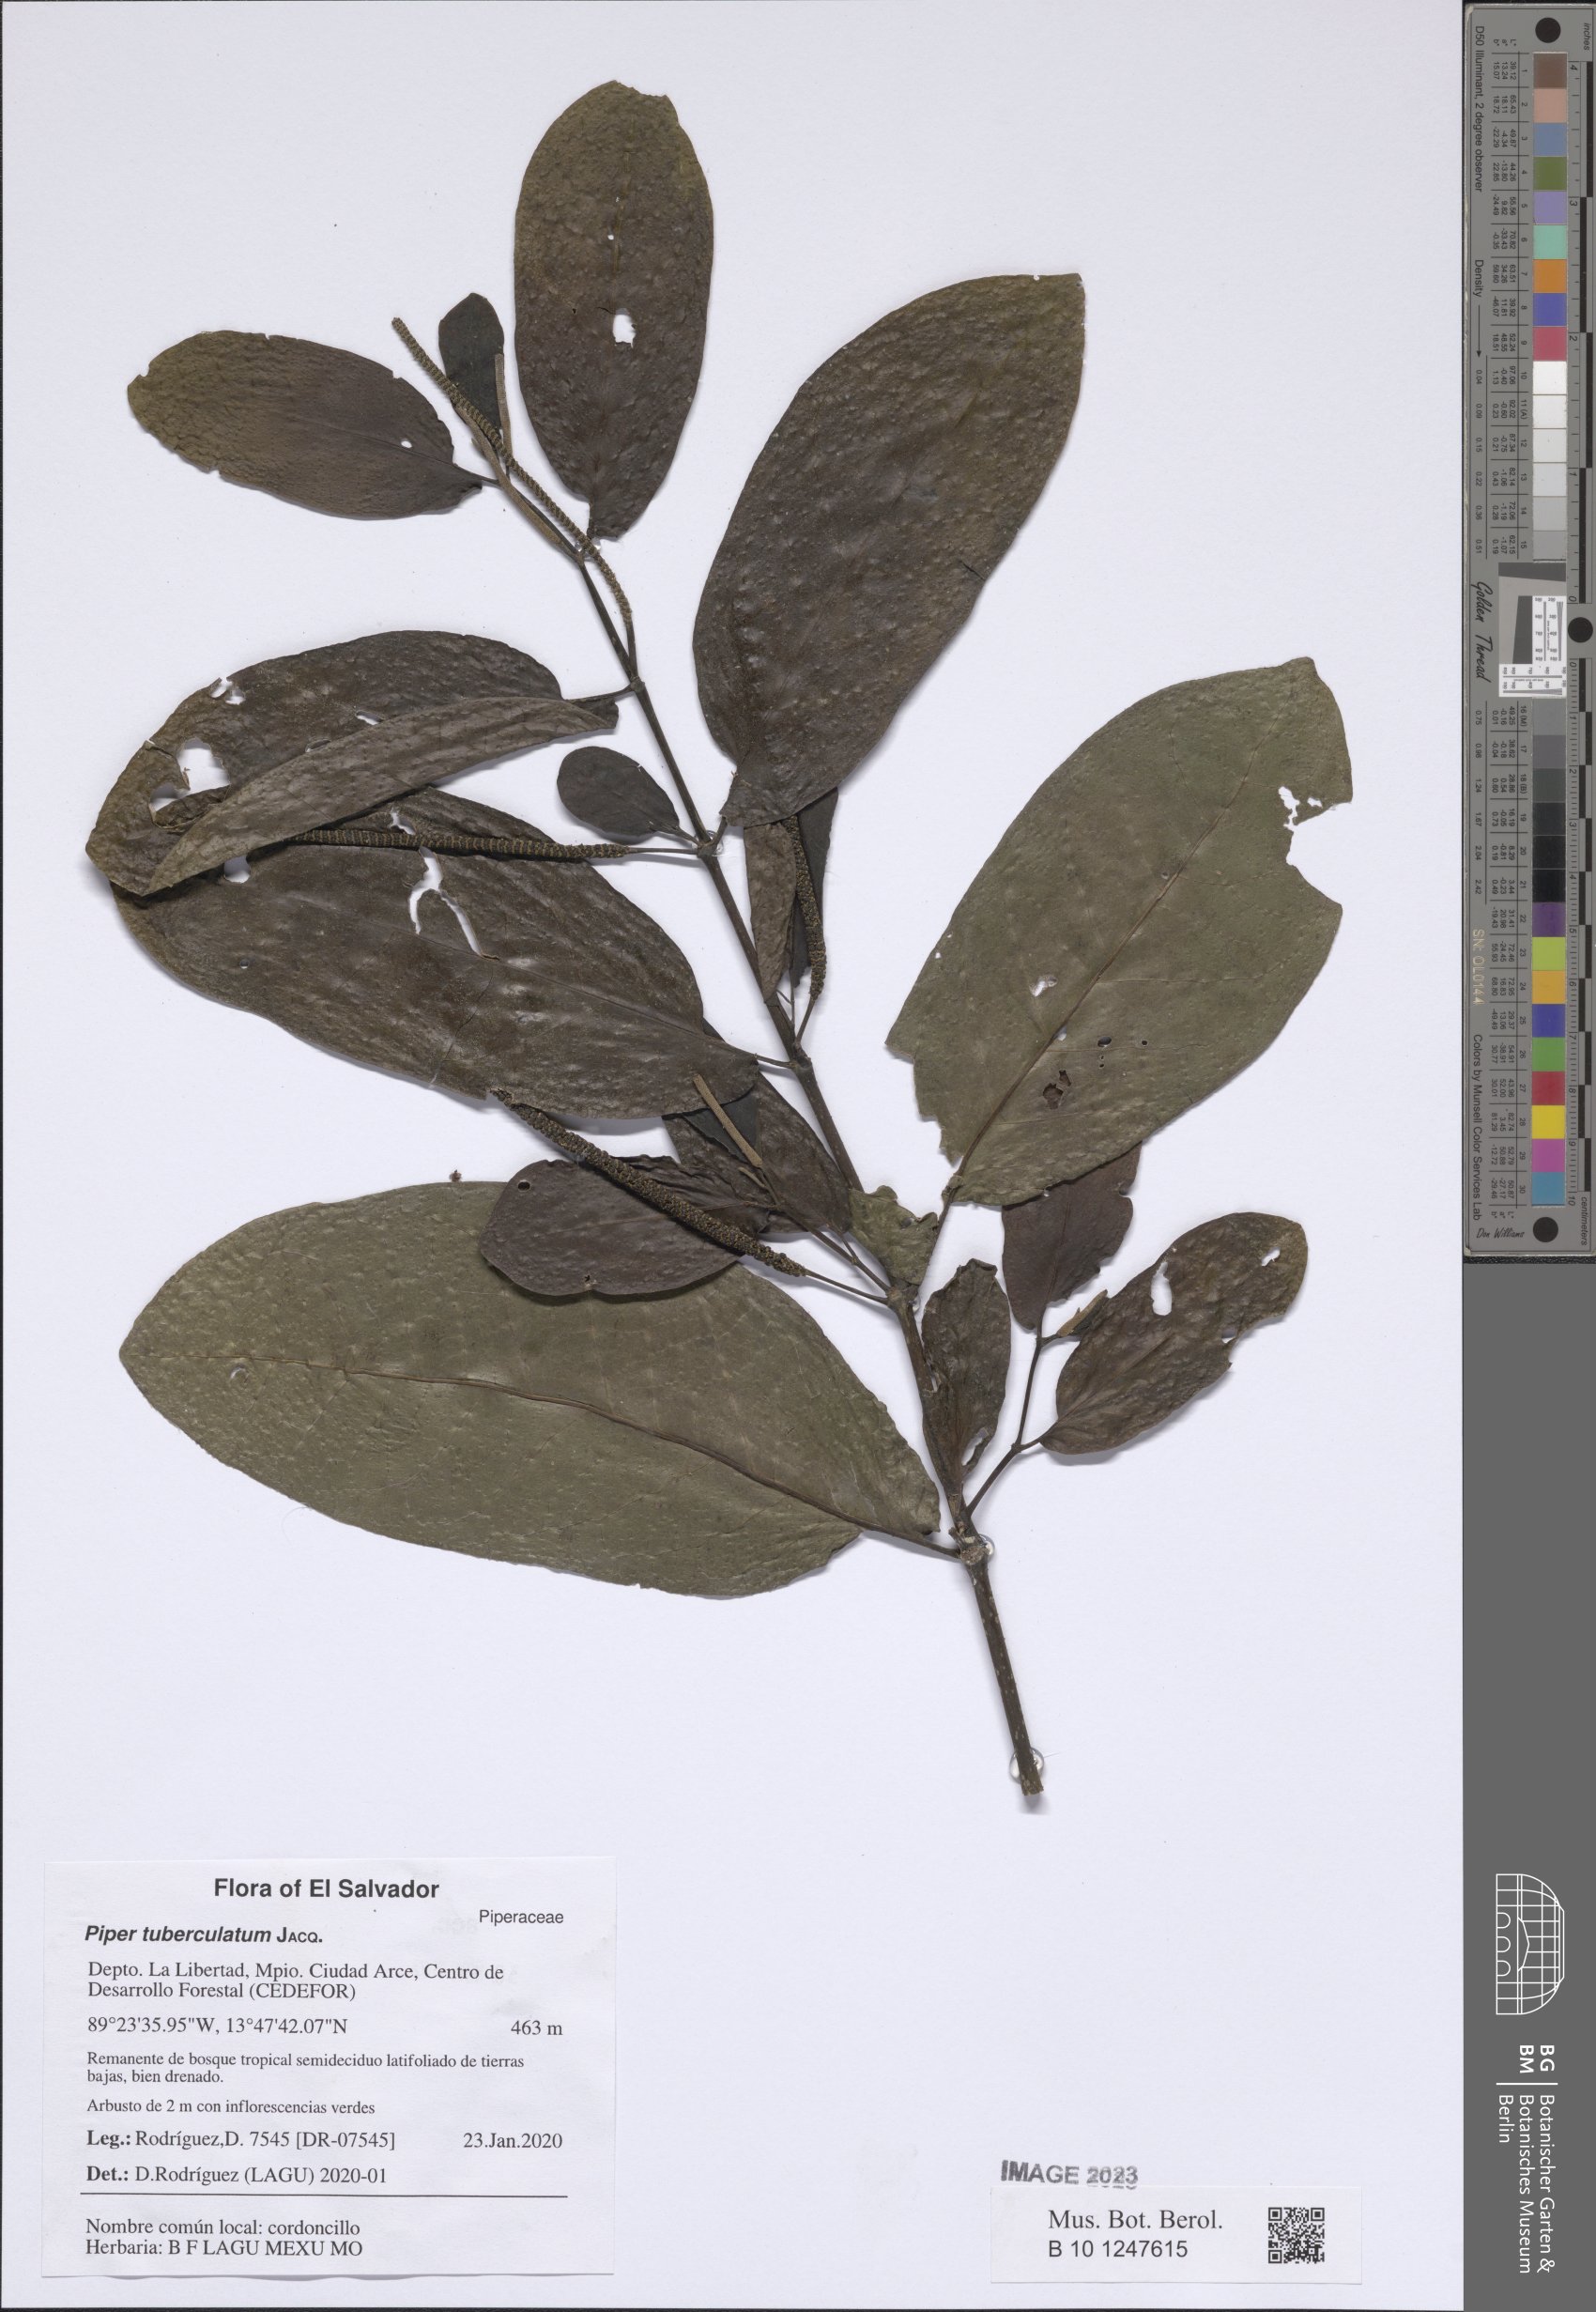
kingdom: Plantae
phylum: Tracheophyta
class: Magnoliopsida
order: Piperales
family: Piperaceae
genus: Piper
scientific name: Piper tuberculatum
